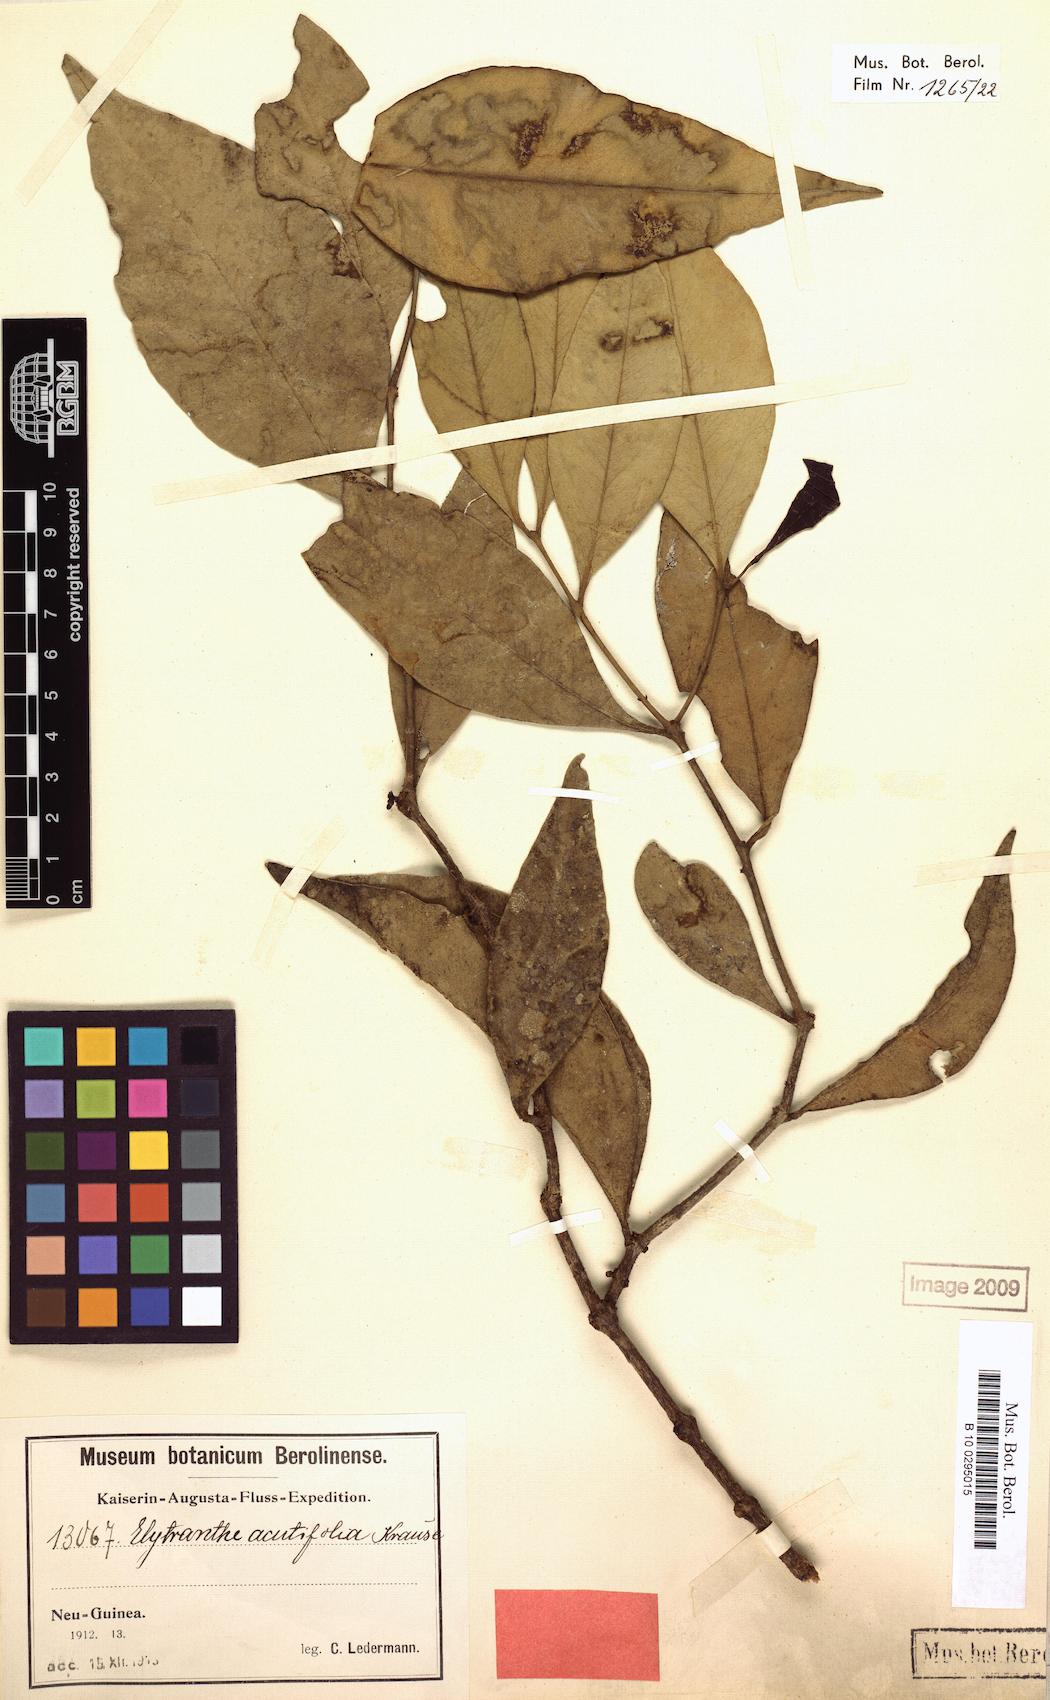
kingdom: Plantae
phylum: Tracheophyta
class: Magnoliopsida
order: Santalales
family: Loranthaceae
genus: Macrosolen
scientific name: Macrosolen cochinchinensis
